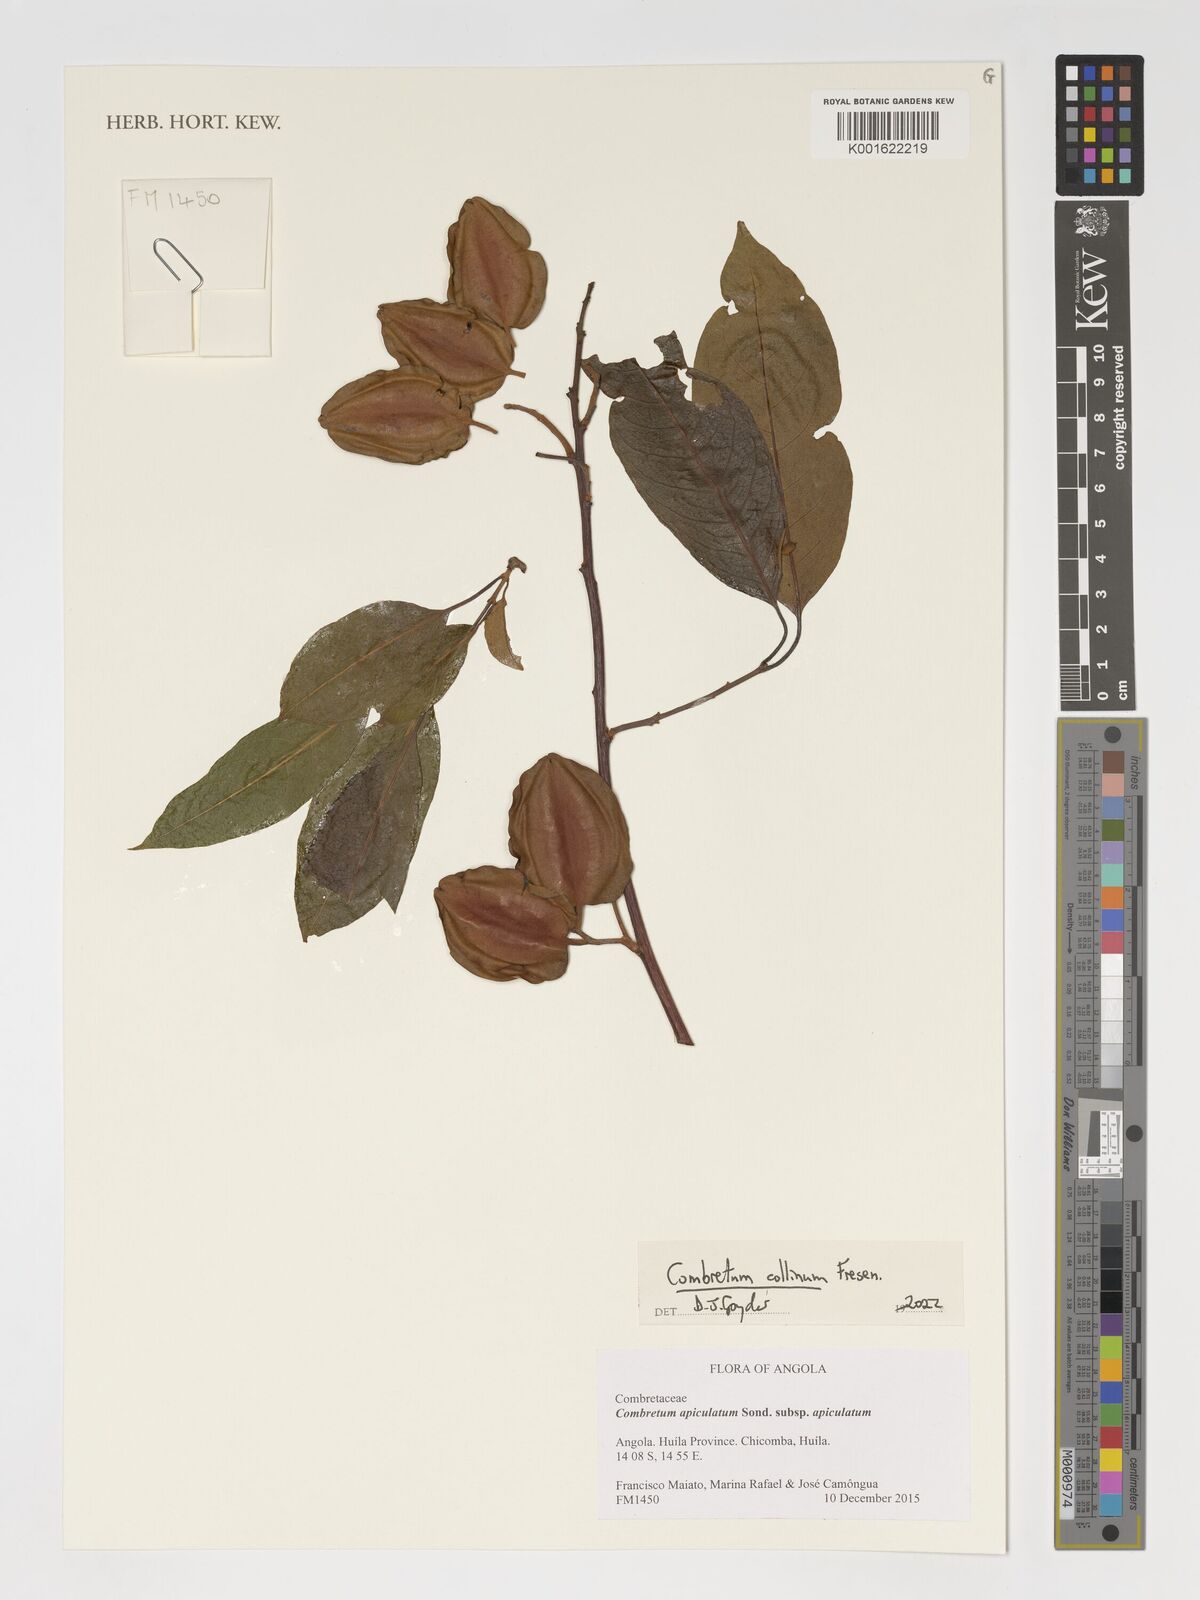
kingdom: Plantae
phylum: Tracheophyta
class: Magnoliopsida
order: Myrtales
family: Combretaceae
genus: Combretum
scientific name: Combretum collinum
